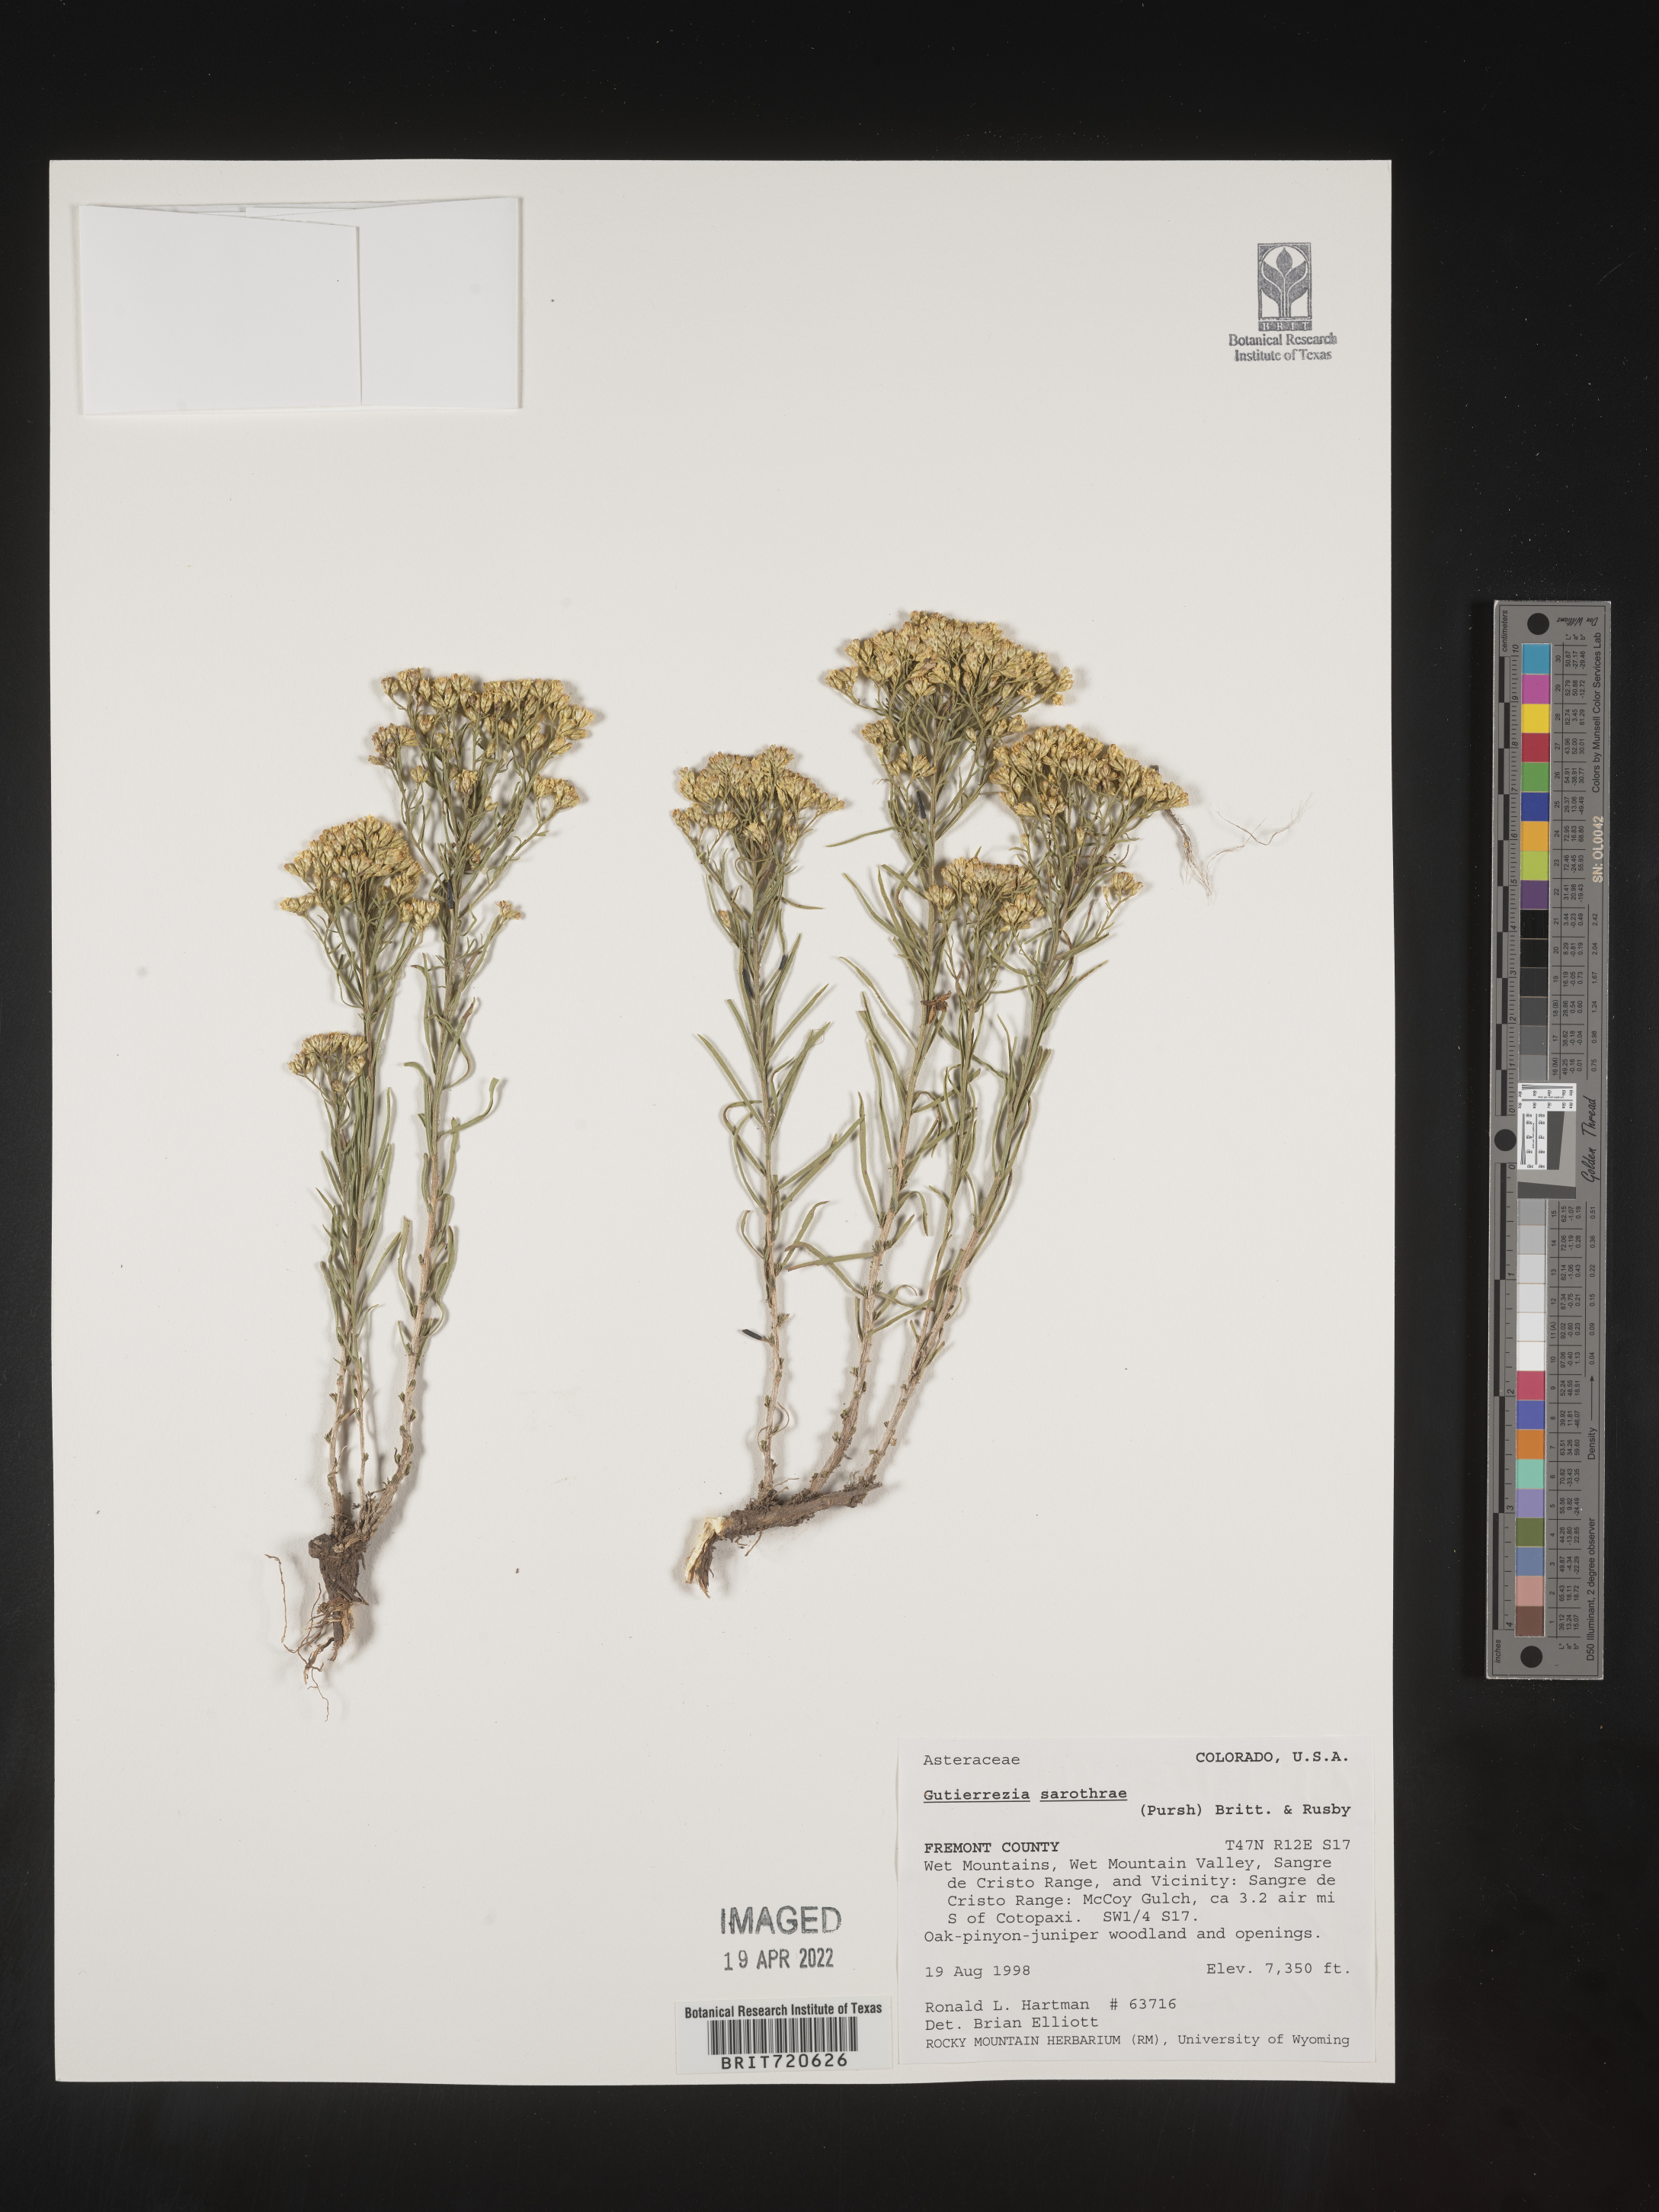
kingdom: Plantae
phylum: Tracheophyta
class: Magnoliopsida
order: Asterales
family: Asteraceae
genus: Gutierrezia
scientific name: Gutierrezia sarothrae
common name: Broom snakeweed
